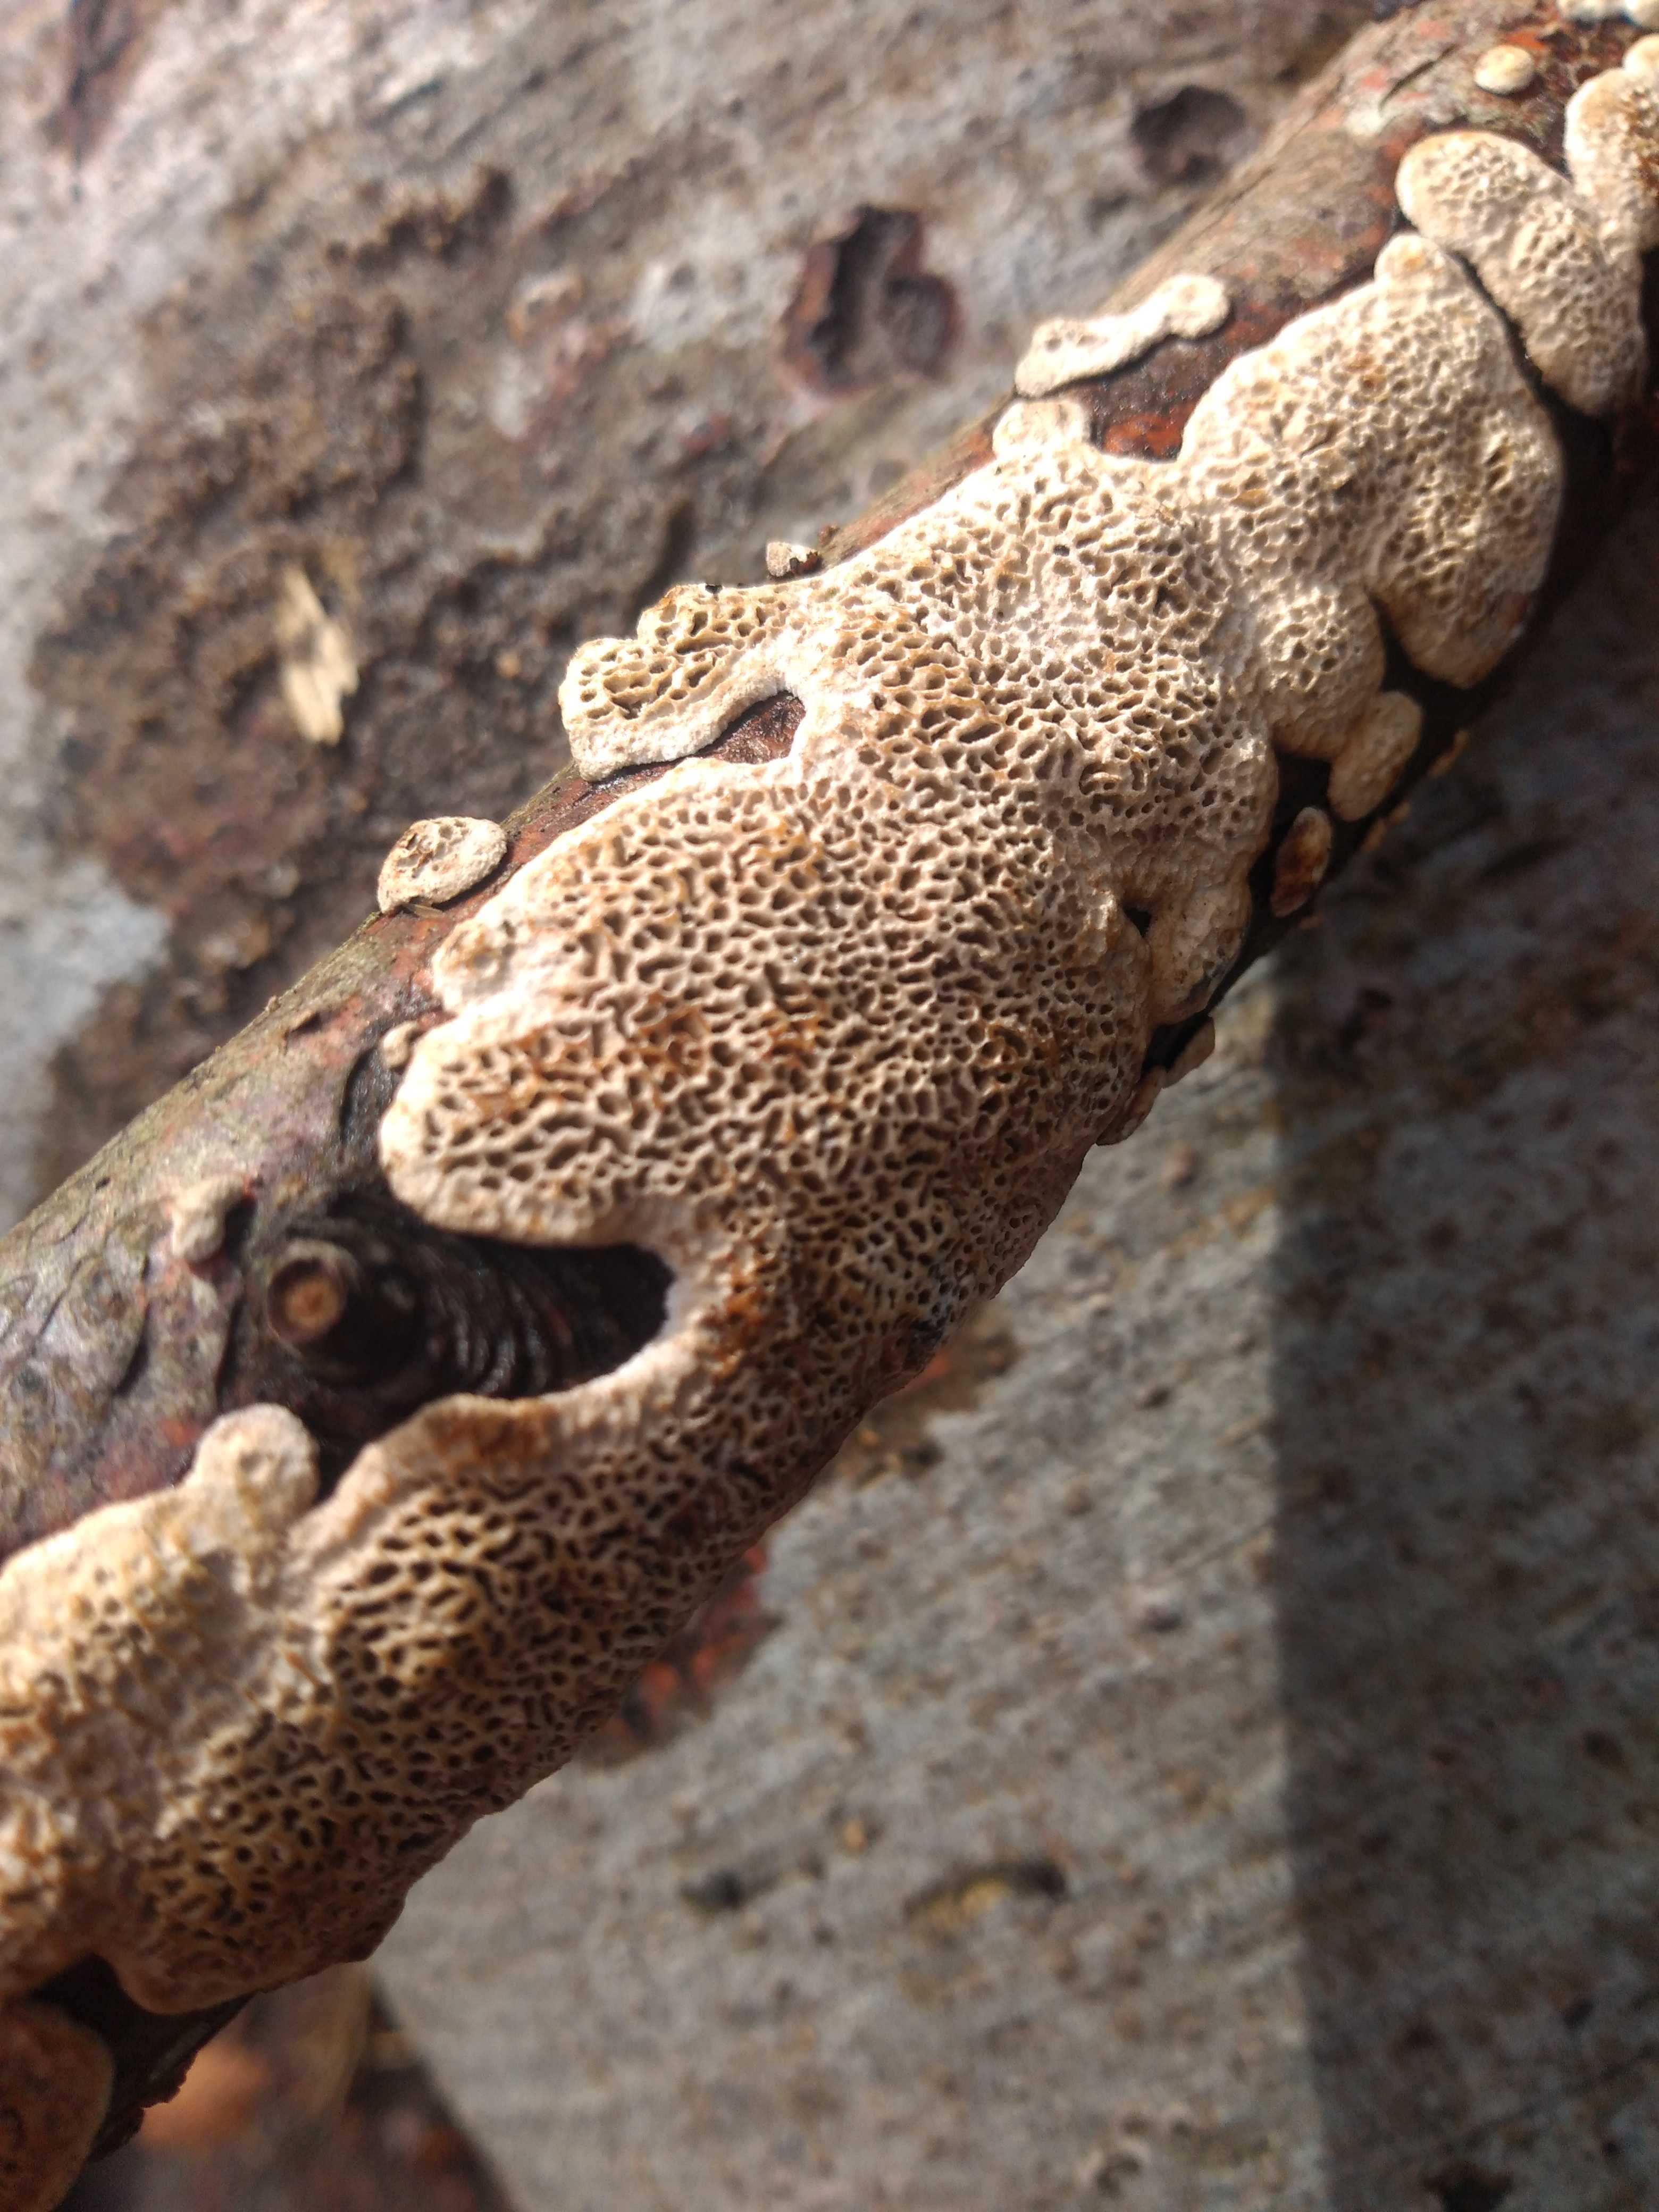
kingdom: Fungi
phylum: Basidiomycota
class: Agaricomycetes
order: Polyporales
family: Polyporaceae
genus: Podofomes
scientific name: Podofomes mollis
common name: blød begporesvamp
